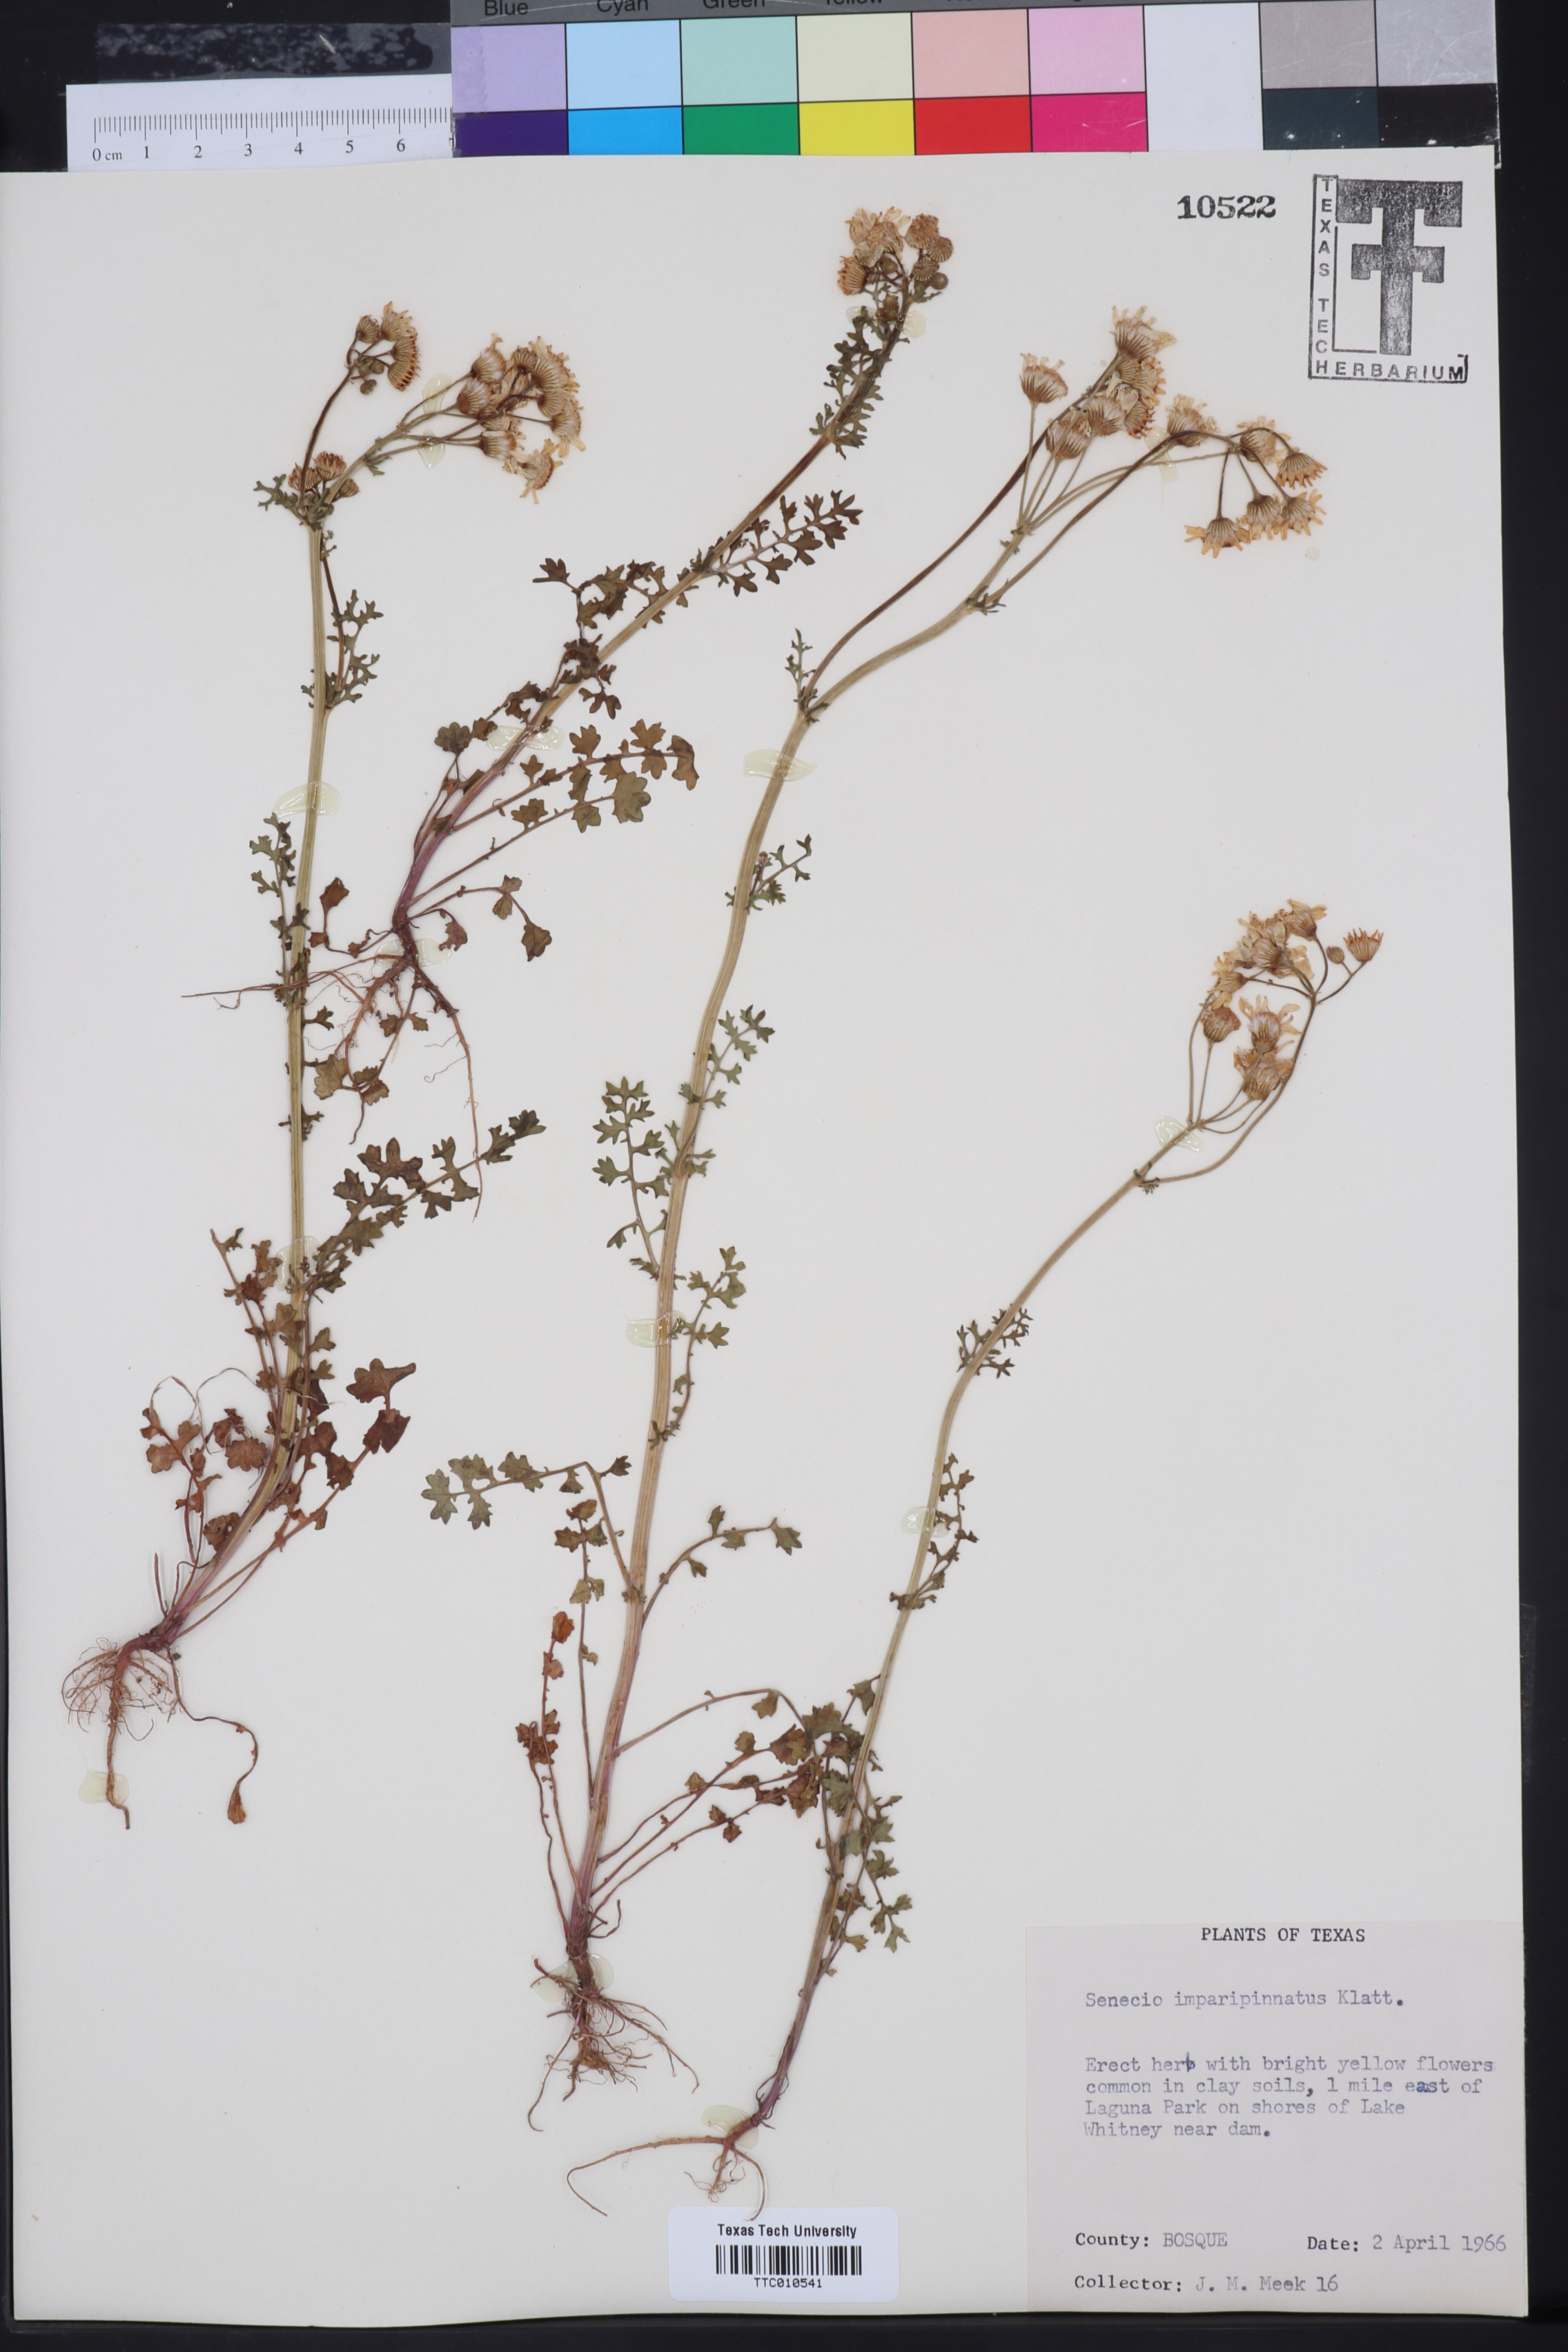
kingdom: Plantae
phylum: Tracheophyta
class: Magnoliopsida
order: Asterales
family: Asteraceae
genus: Packera
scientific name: Packera tampicana
